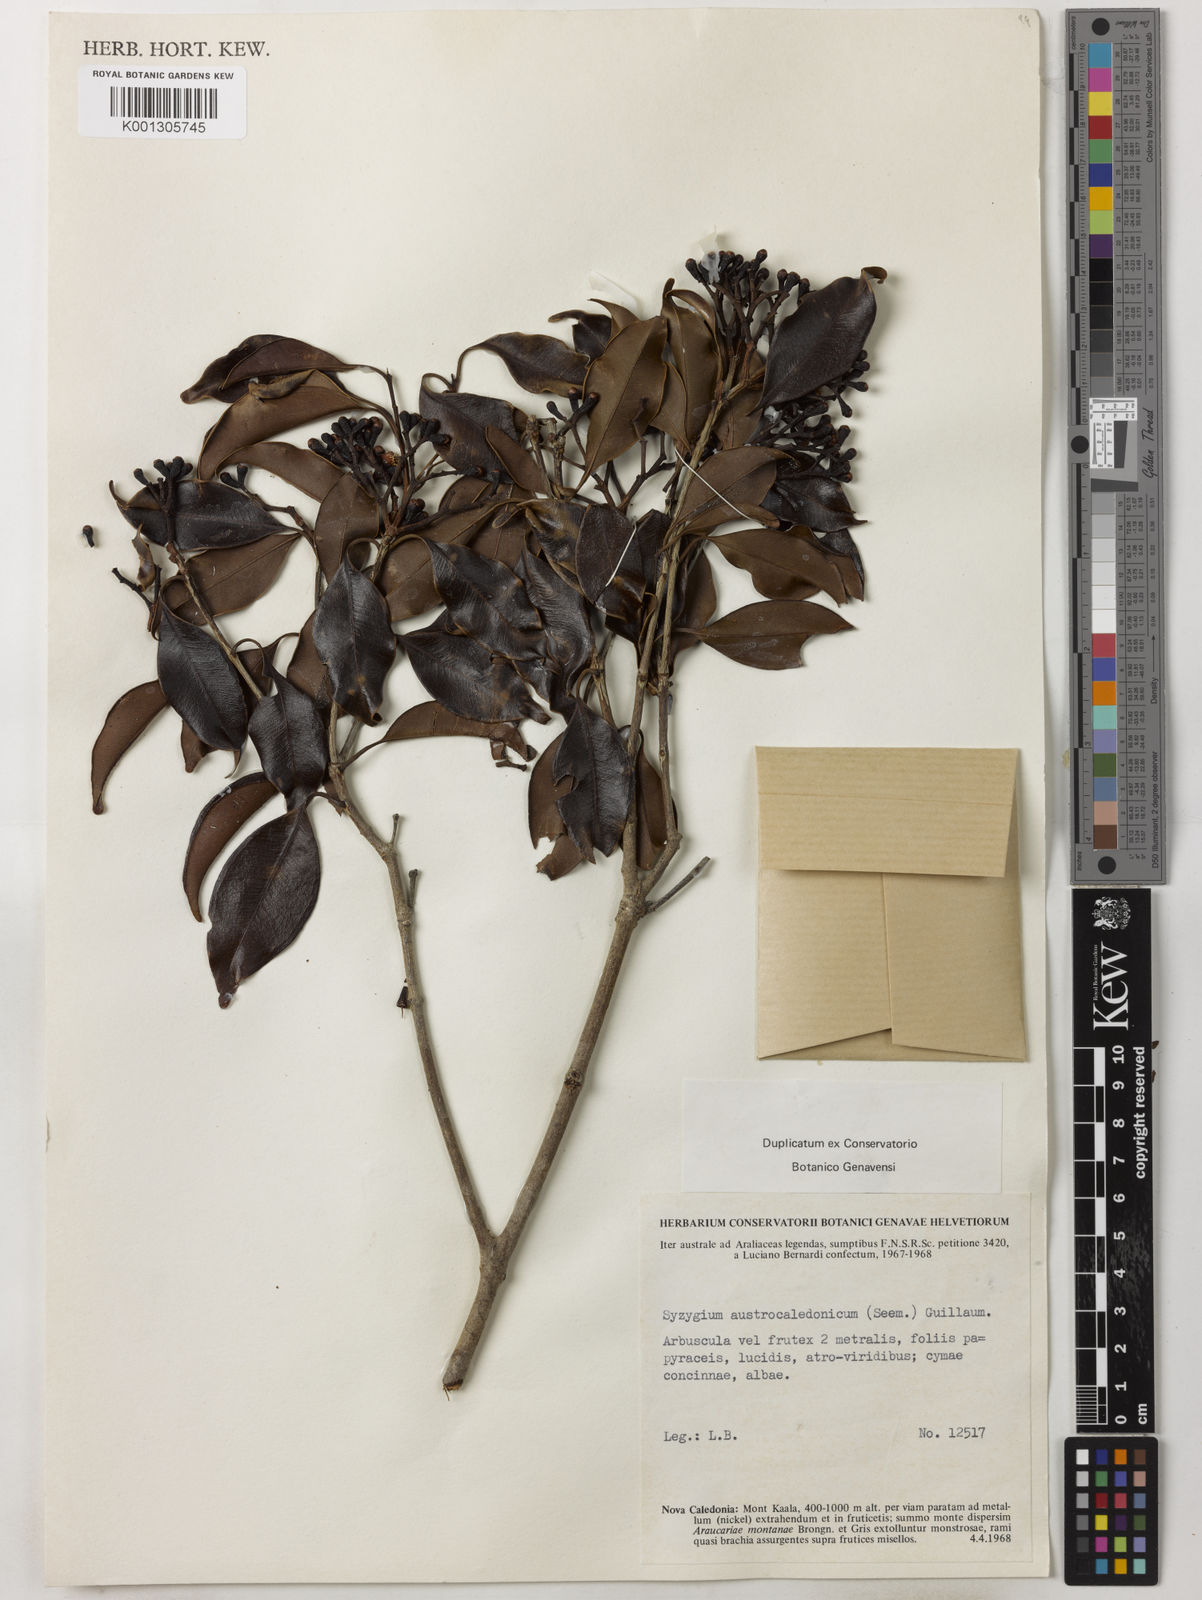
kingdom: Plantae
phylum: Tracheophyta
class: Magnoliopsida
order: Myrtales
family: Myrtaceae
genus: Syzygium
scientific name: Syzygium austrocaledonicum
